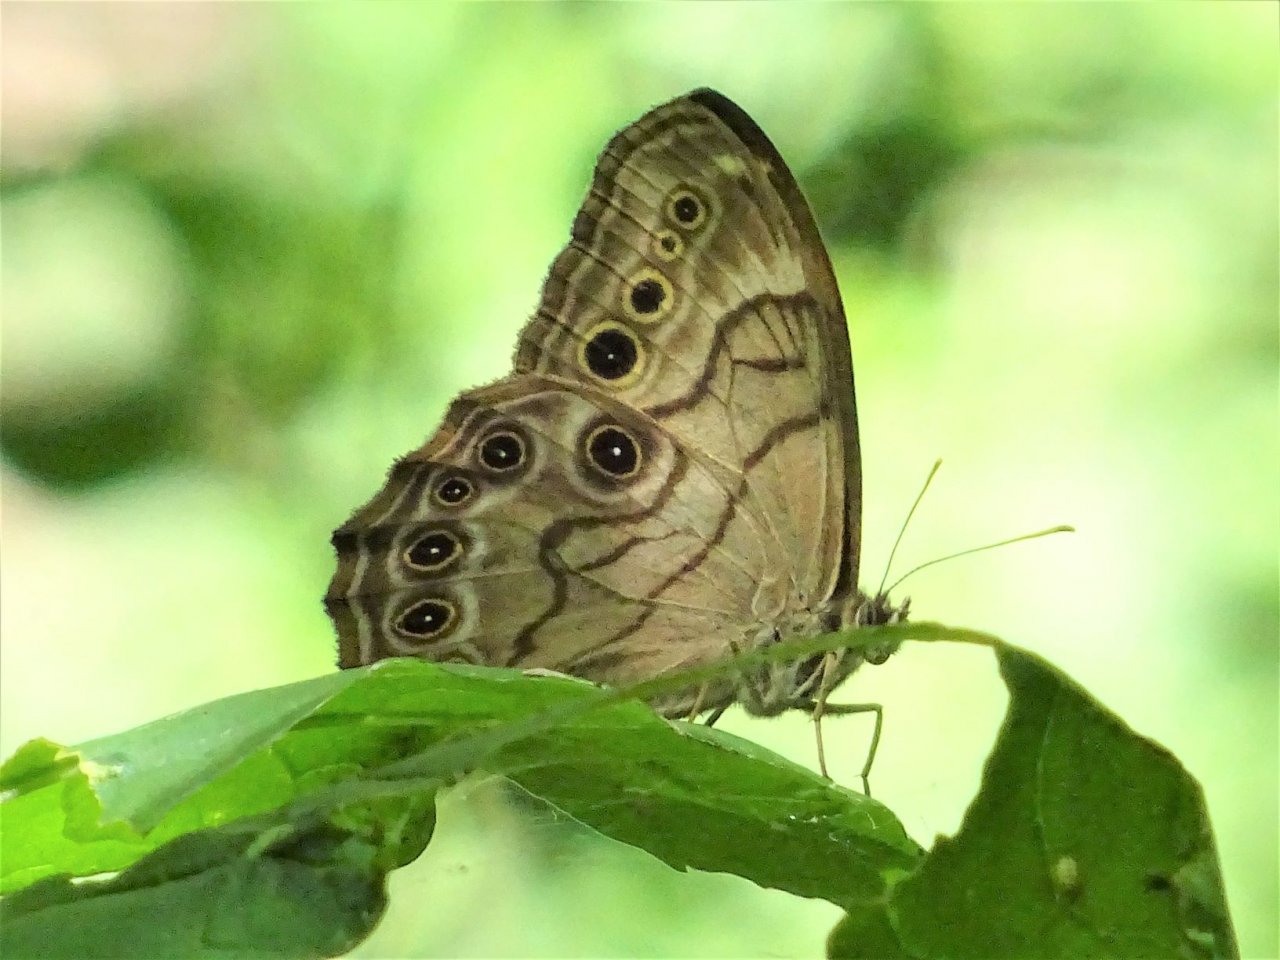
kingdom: Animalia
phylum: Arthropoda
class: Insecta
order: Lepidoptera
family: Nymphalidae
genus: Lethe
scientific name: Lethe anthedon
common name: Northern Pearly-Eye
